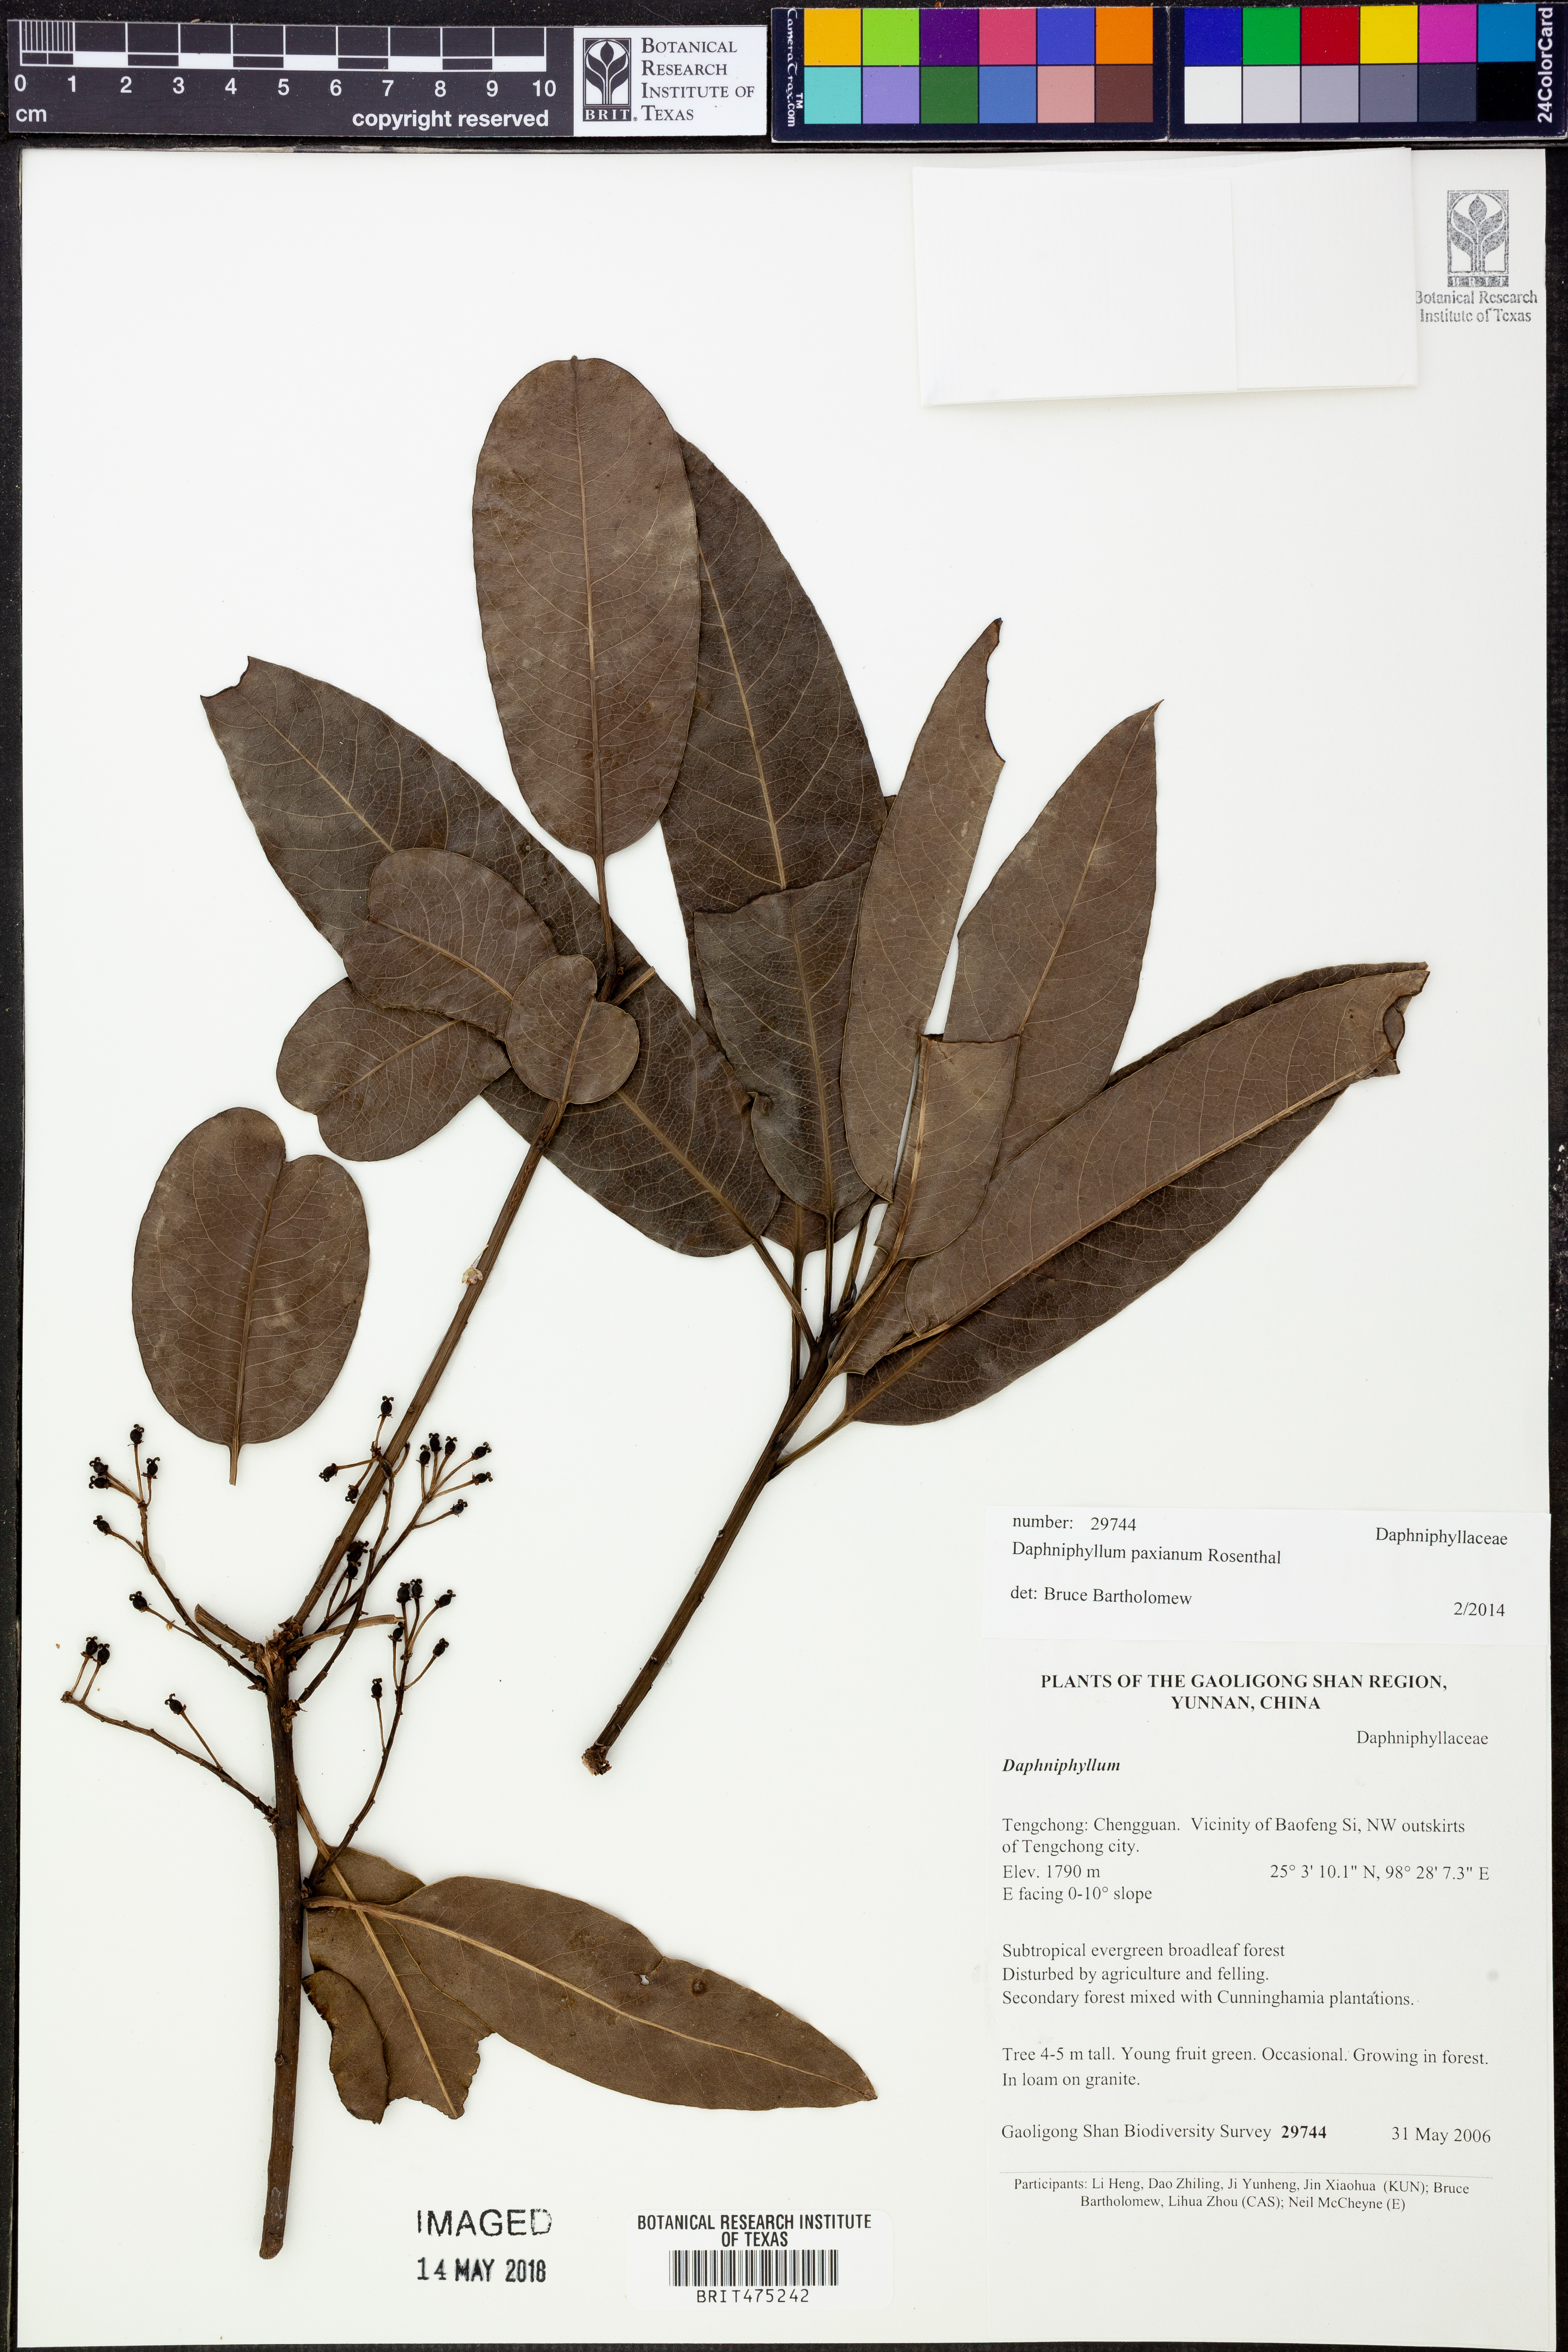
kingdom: Plantae
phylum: Tracheophyta
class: Magnoliopsida
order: Saxifragales
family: Daphniphyllaceae
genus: Daphniphyllum
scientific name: Daphniphyllum paxianum
